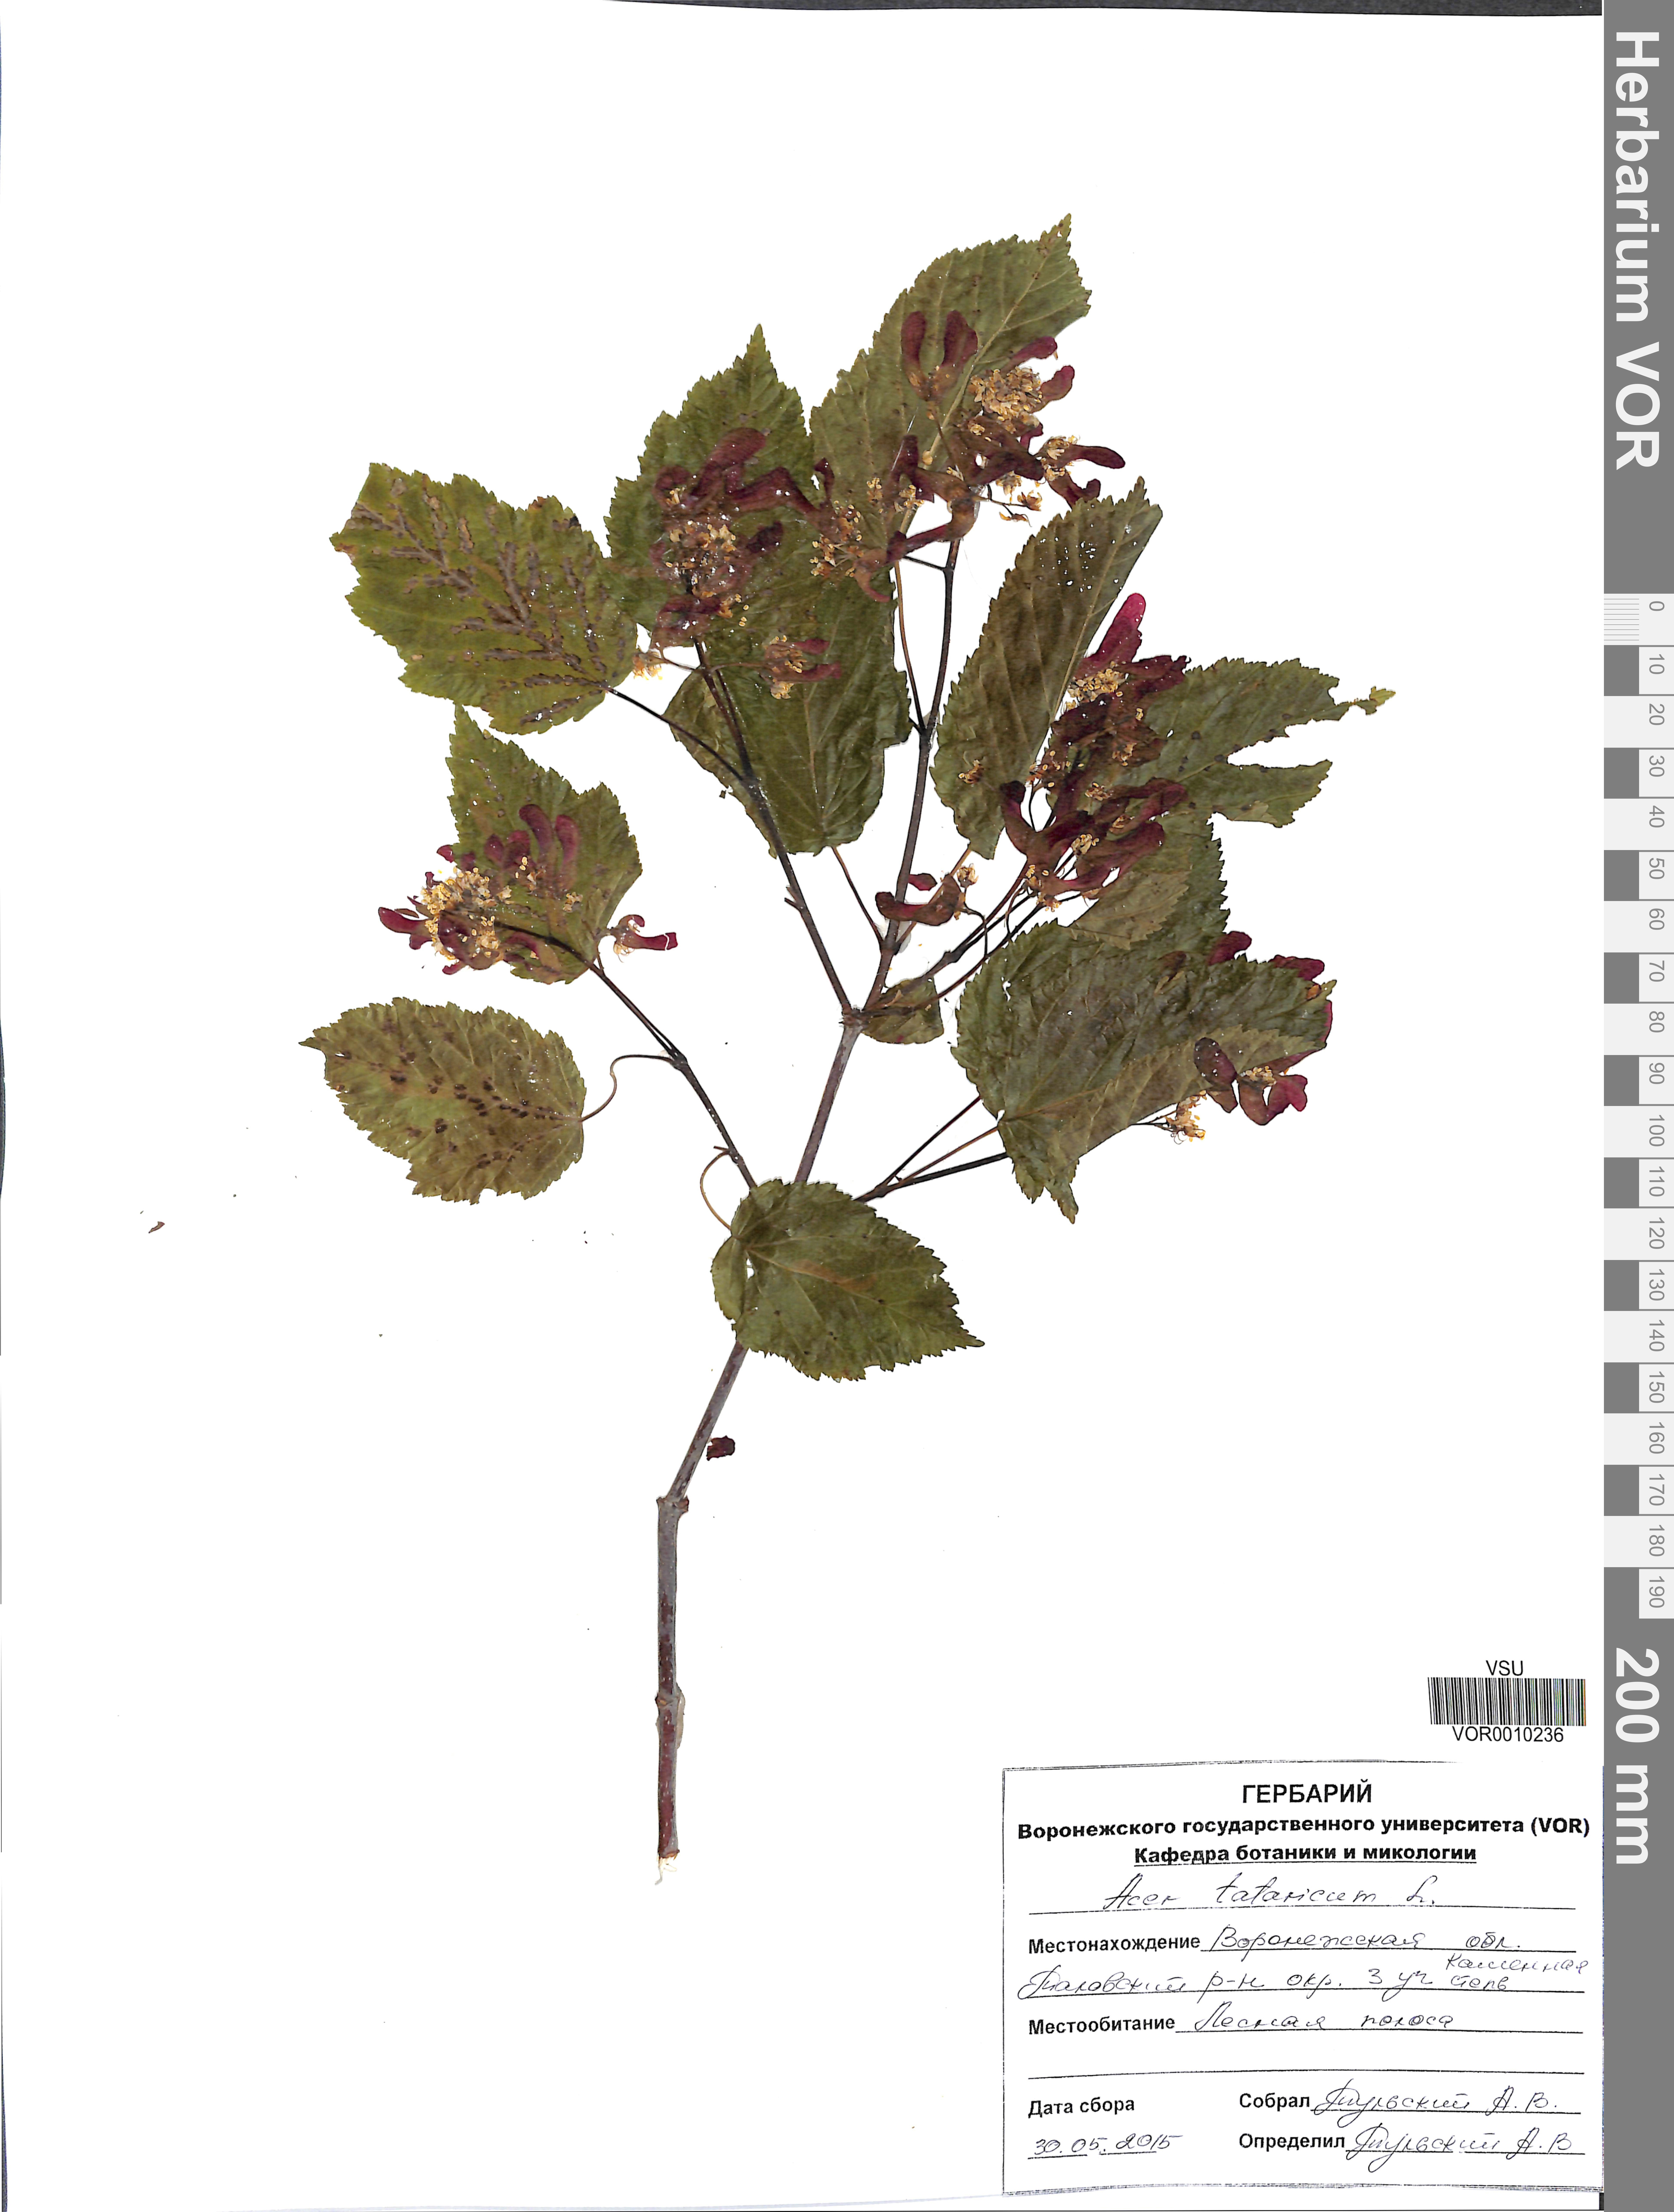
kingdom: Plantae
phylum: Tracheophyta
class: Magnoliopsida
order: Sapindales
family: Sapindaceae
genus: Acer
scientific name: Acer tataricum
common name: Tartar maple
